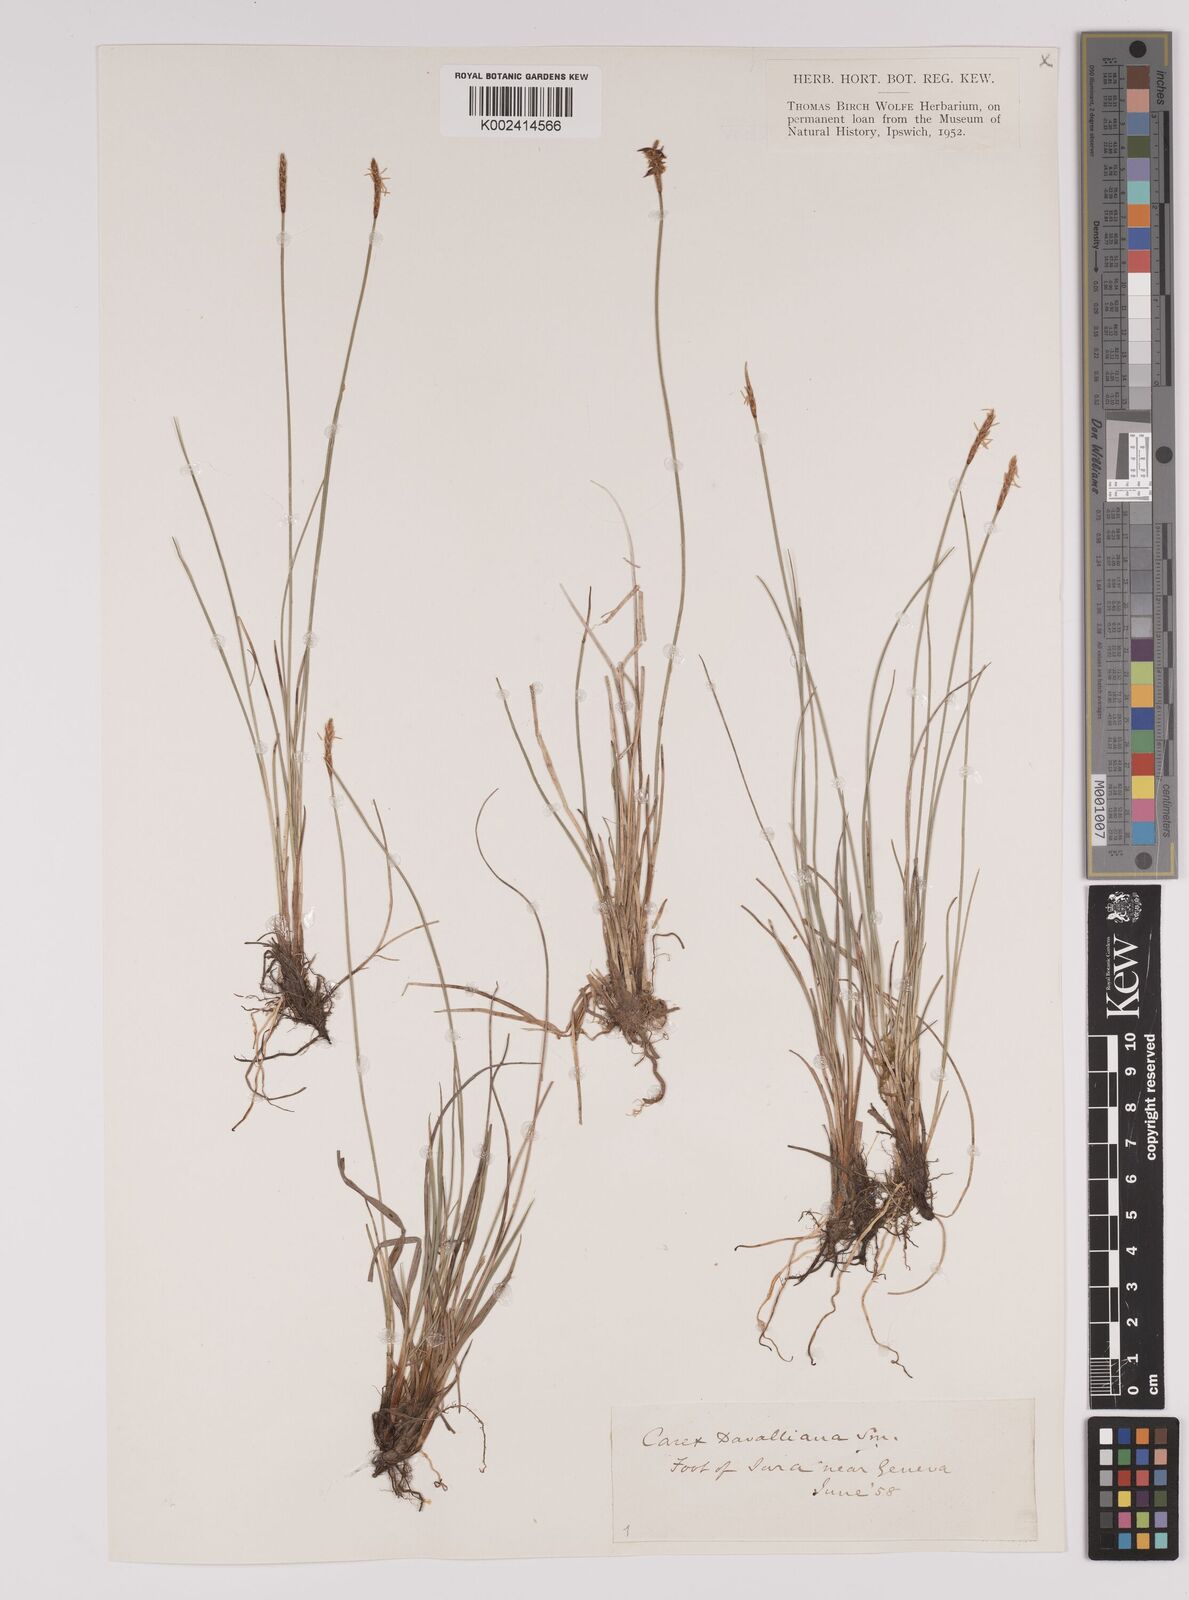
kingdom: Plantae
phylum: Tracheophyta
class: Liliopsida
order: Poales
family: Cyperaceae
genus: Carex
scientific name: Carex davalliana
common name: Davall's sedge
